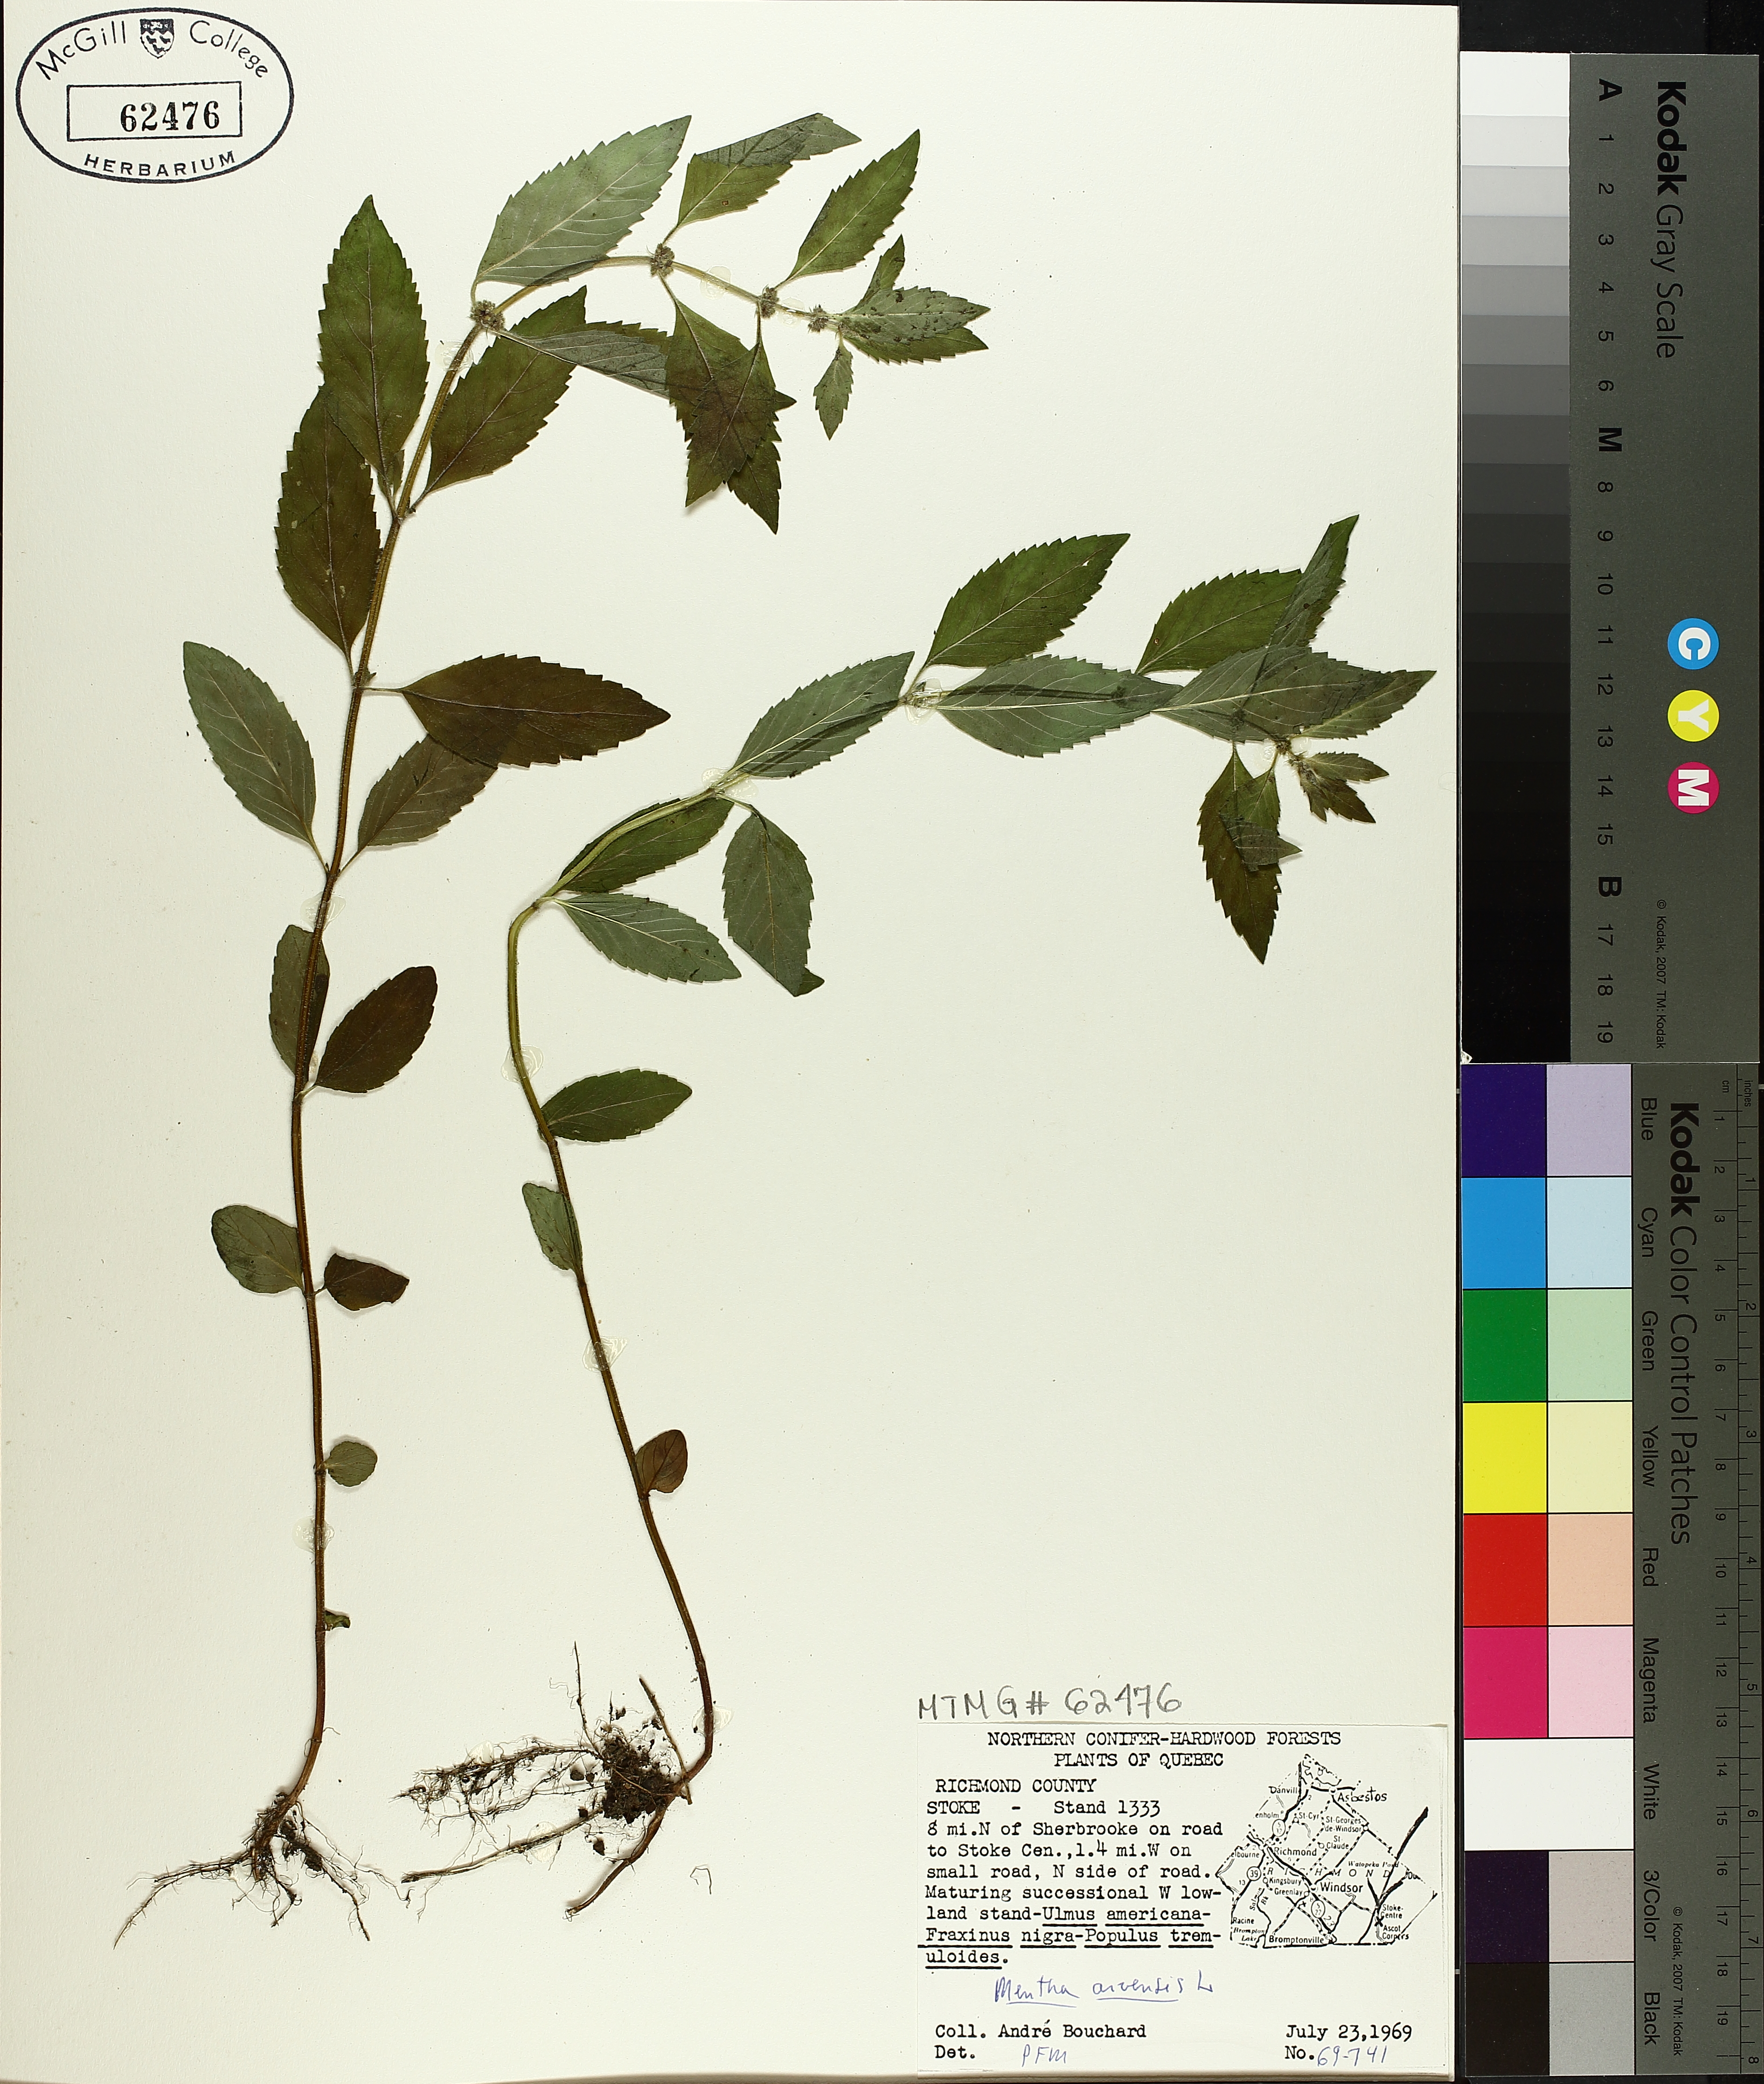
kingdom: Plantae
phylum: Tracheophyta
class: Magnoliopsida
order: Lamiales
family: Lamiaceae
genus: Mentha
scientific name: Mentha arvensis
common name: Corn mint
